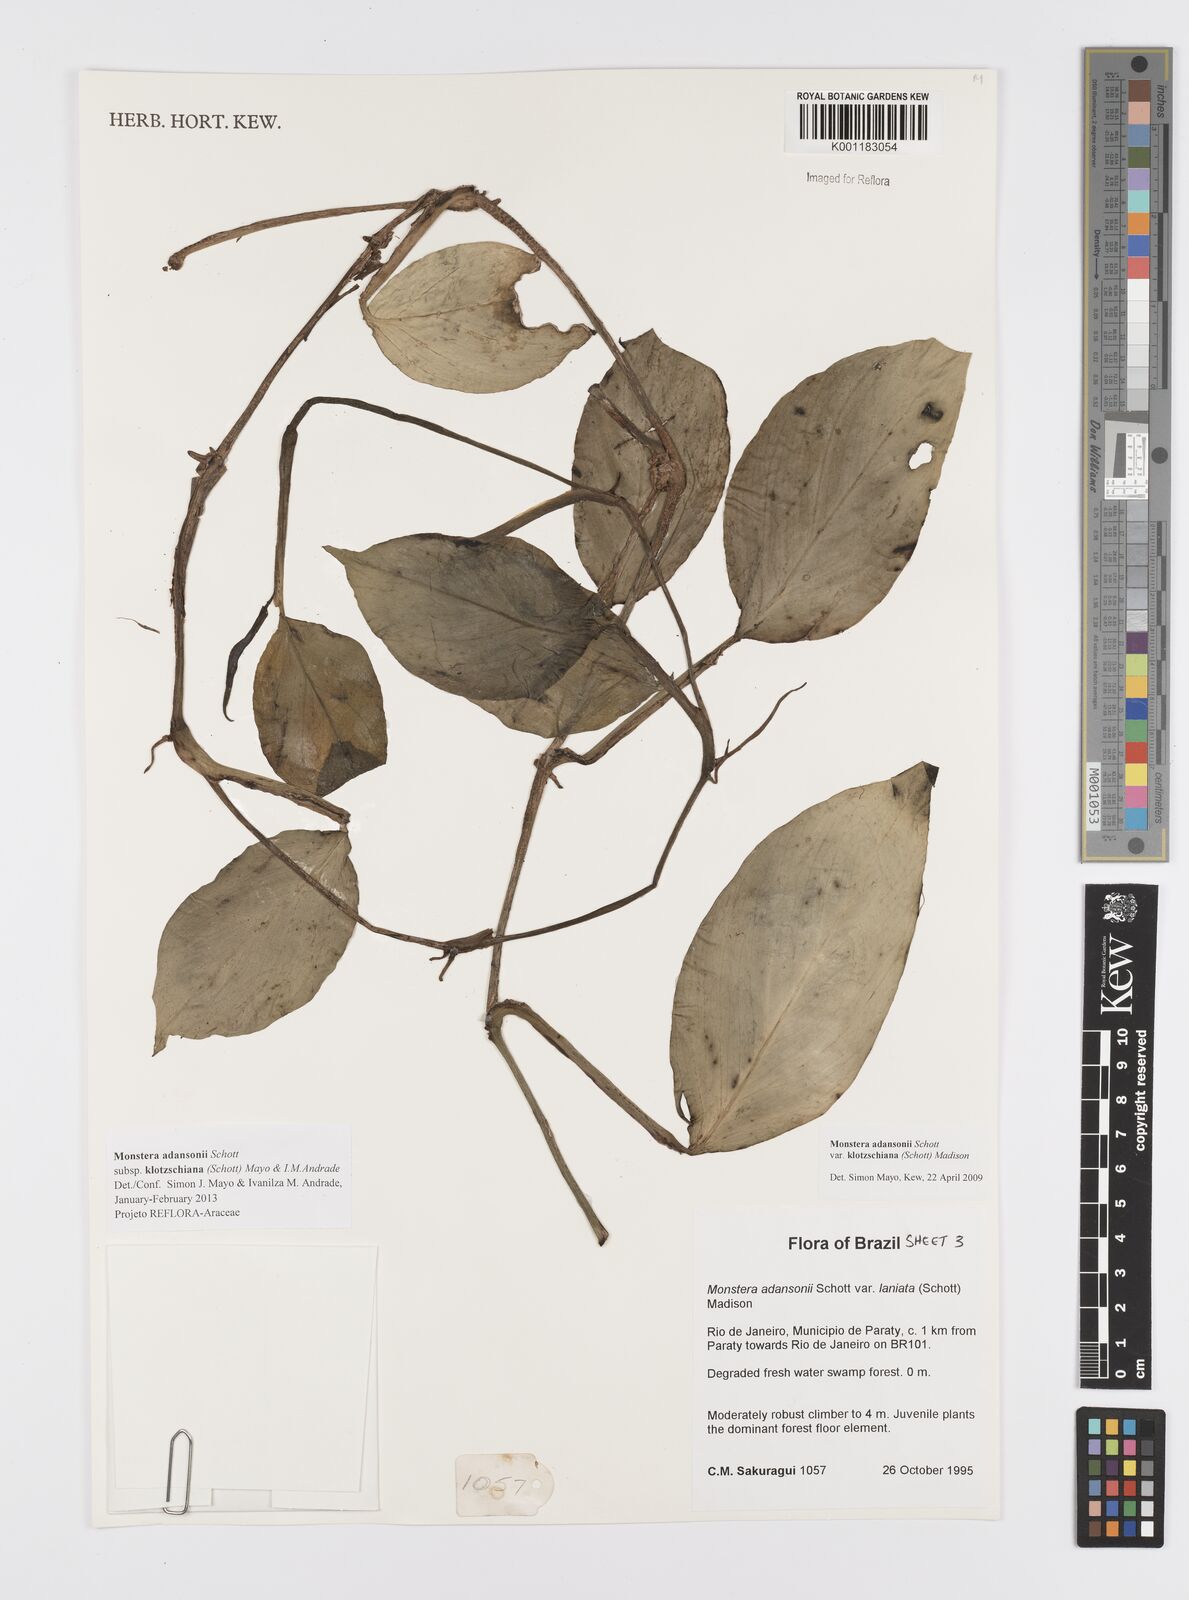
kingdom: Plantae
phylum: Tracheophyta
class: Liliopsida
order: Alismatales
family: Araceae
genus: Monstera
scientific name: Monstera adansonii
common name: Tarovine
